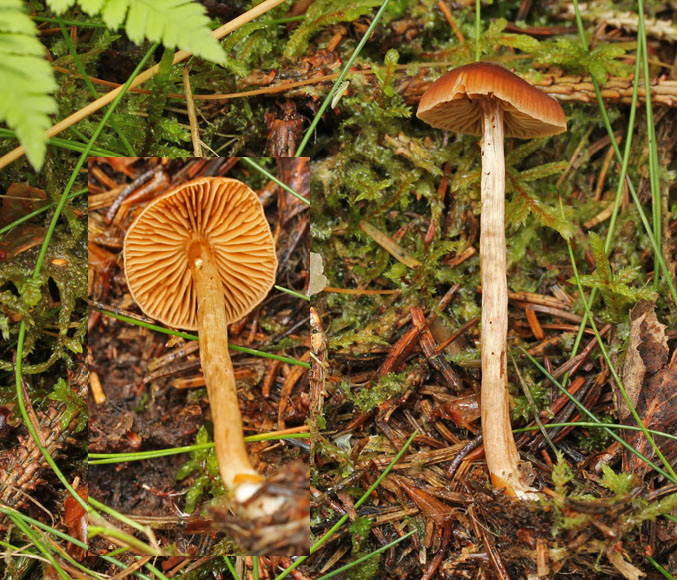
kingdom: Fungi
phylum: Basidiomycota
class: Agaricomycetes
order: Agaricales
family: Cortinariaceae
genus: Cortinarius
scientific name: Cortinarius
